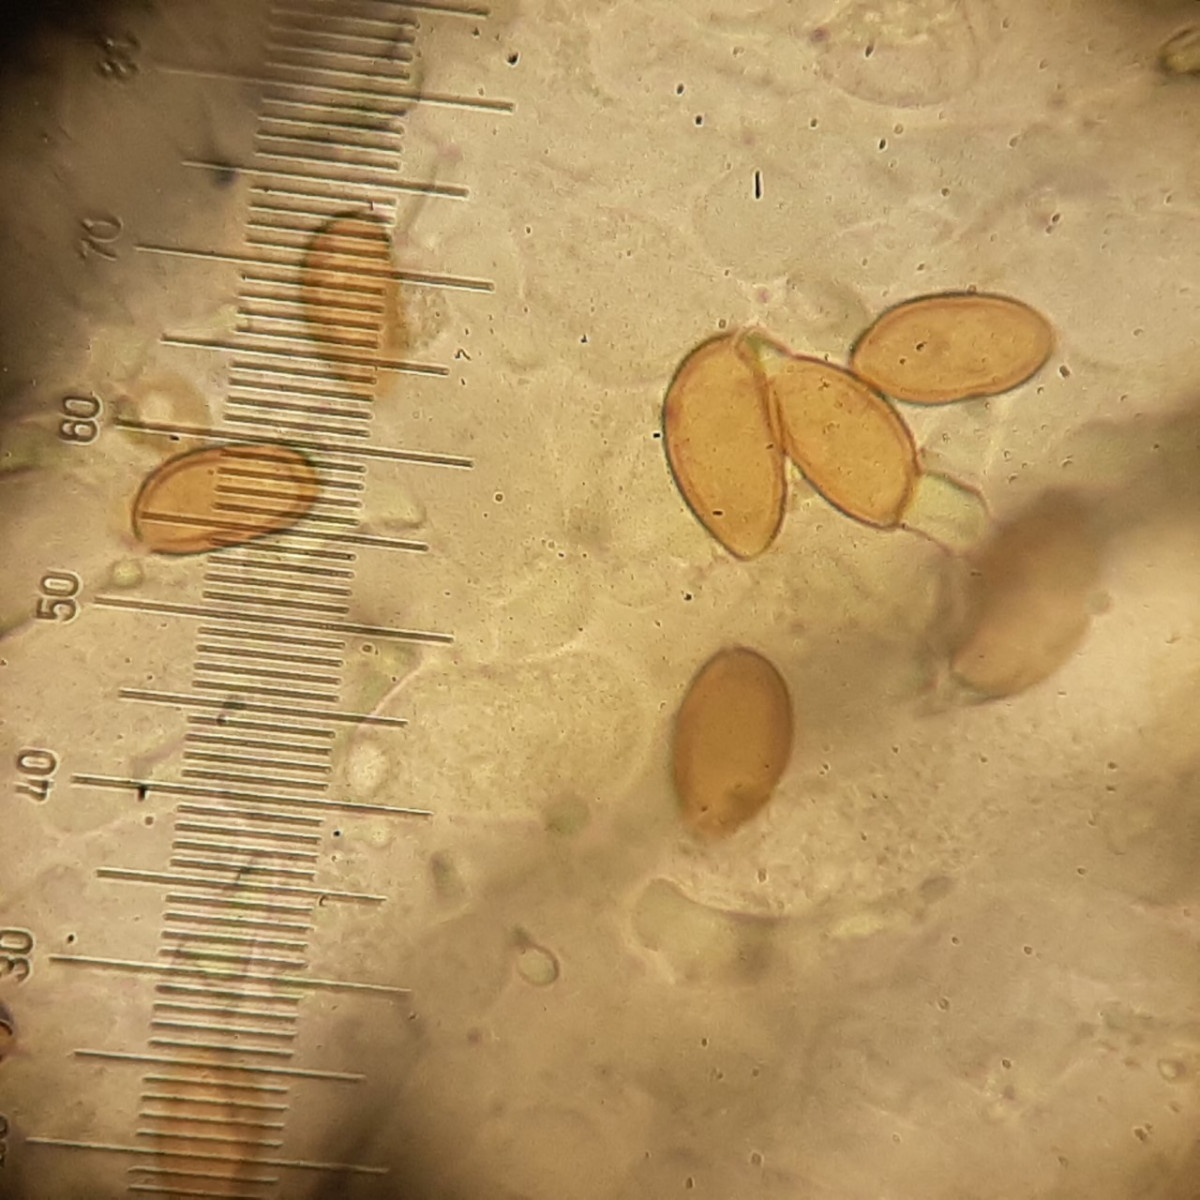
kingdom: Fungi
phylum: Basidiomycota
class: Agaricomycetes
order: Agaricales
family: Tubariaceae
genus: Cyclocybe
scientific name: Cyclocybe erebia
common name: mørk agerhat
